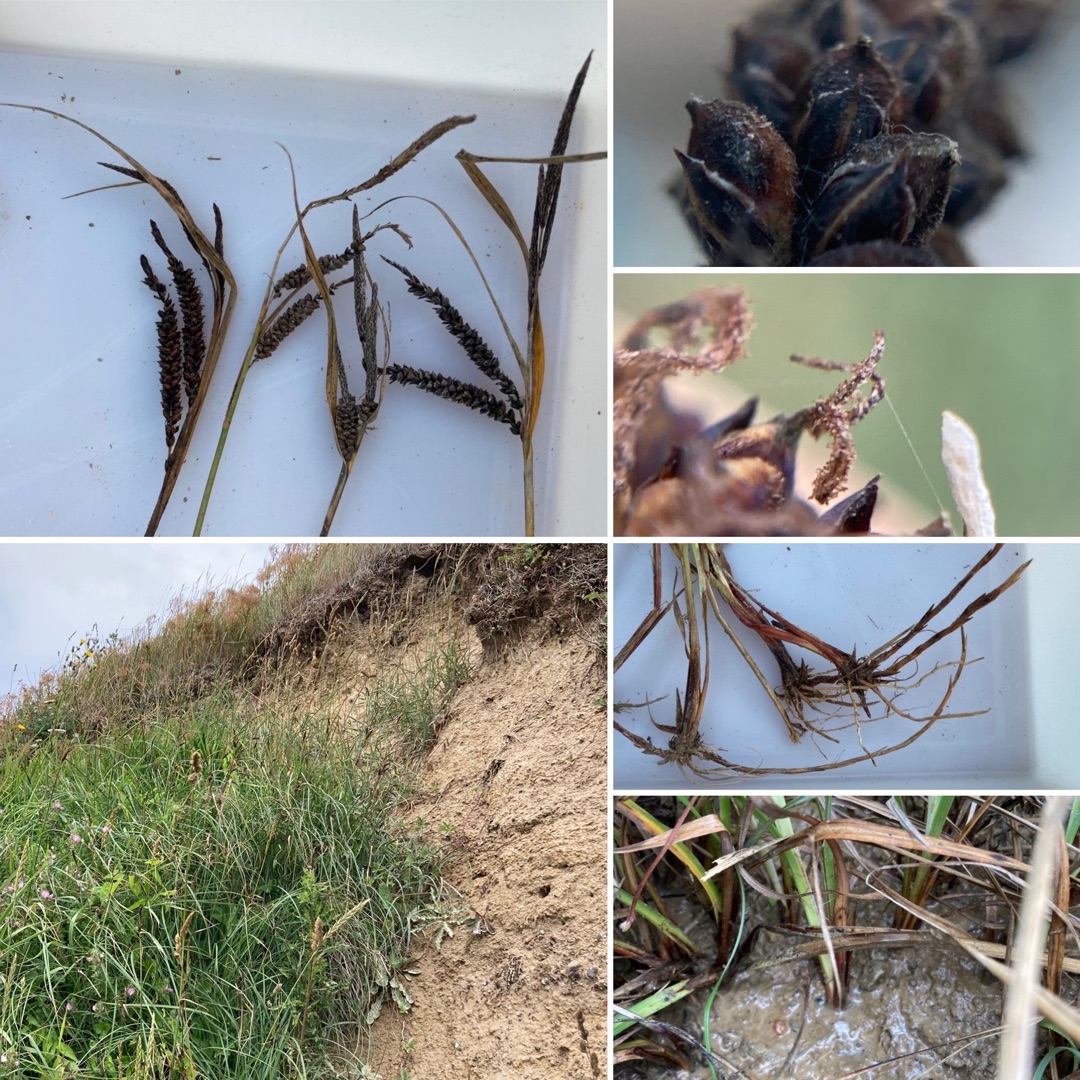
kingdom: Plantae
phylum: Tracheophyta
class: Liliopsida
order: Poales
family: Cyperaceae
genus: Carex
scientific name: Carex flacca
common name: Blågrøn star
